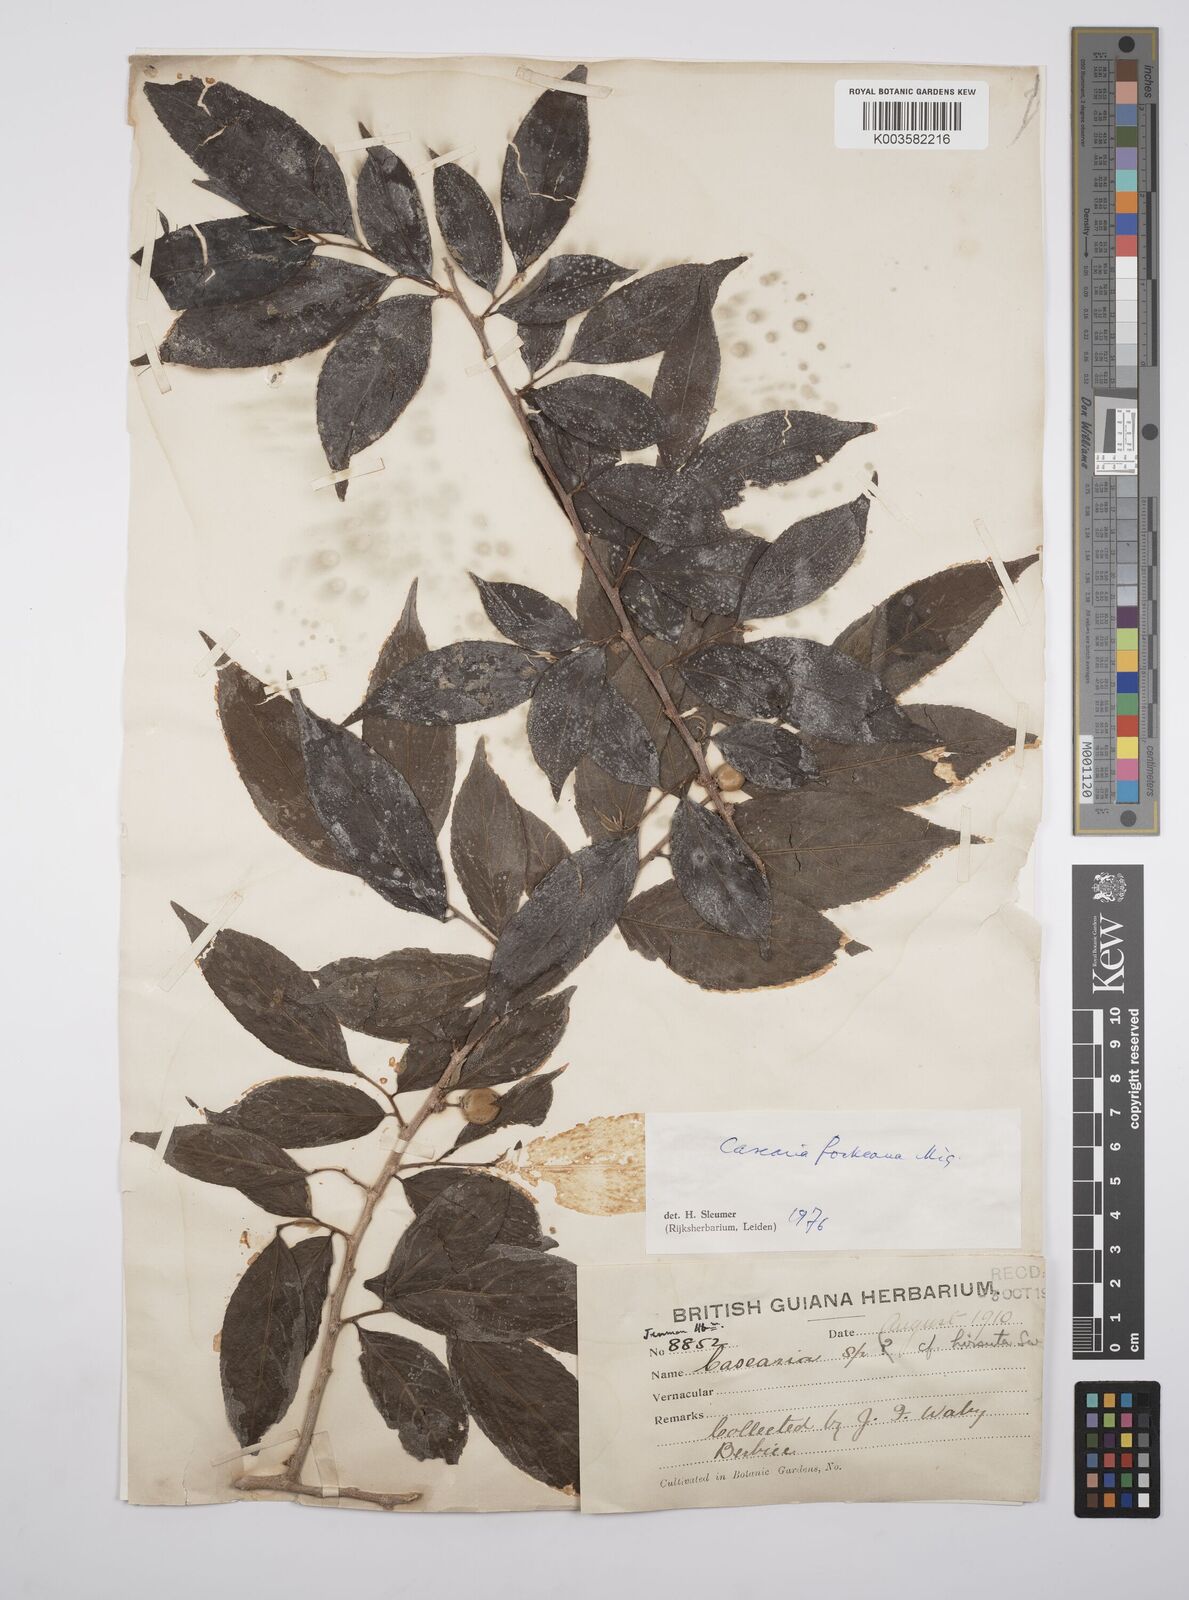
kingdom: Plantae
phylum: Tracheophyta
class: Magnoliopsida
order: Malpighiales
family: Salicaceae
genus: Casearia
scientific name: Casearia mariquitensis
